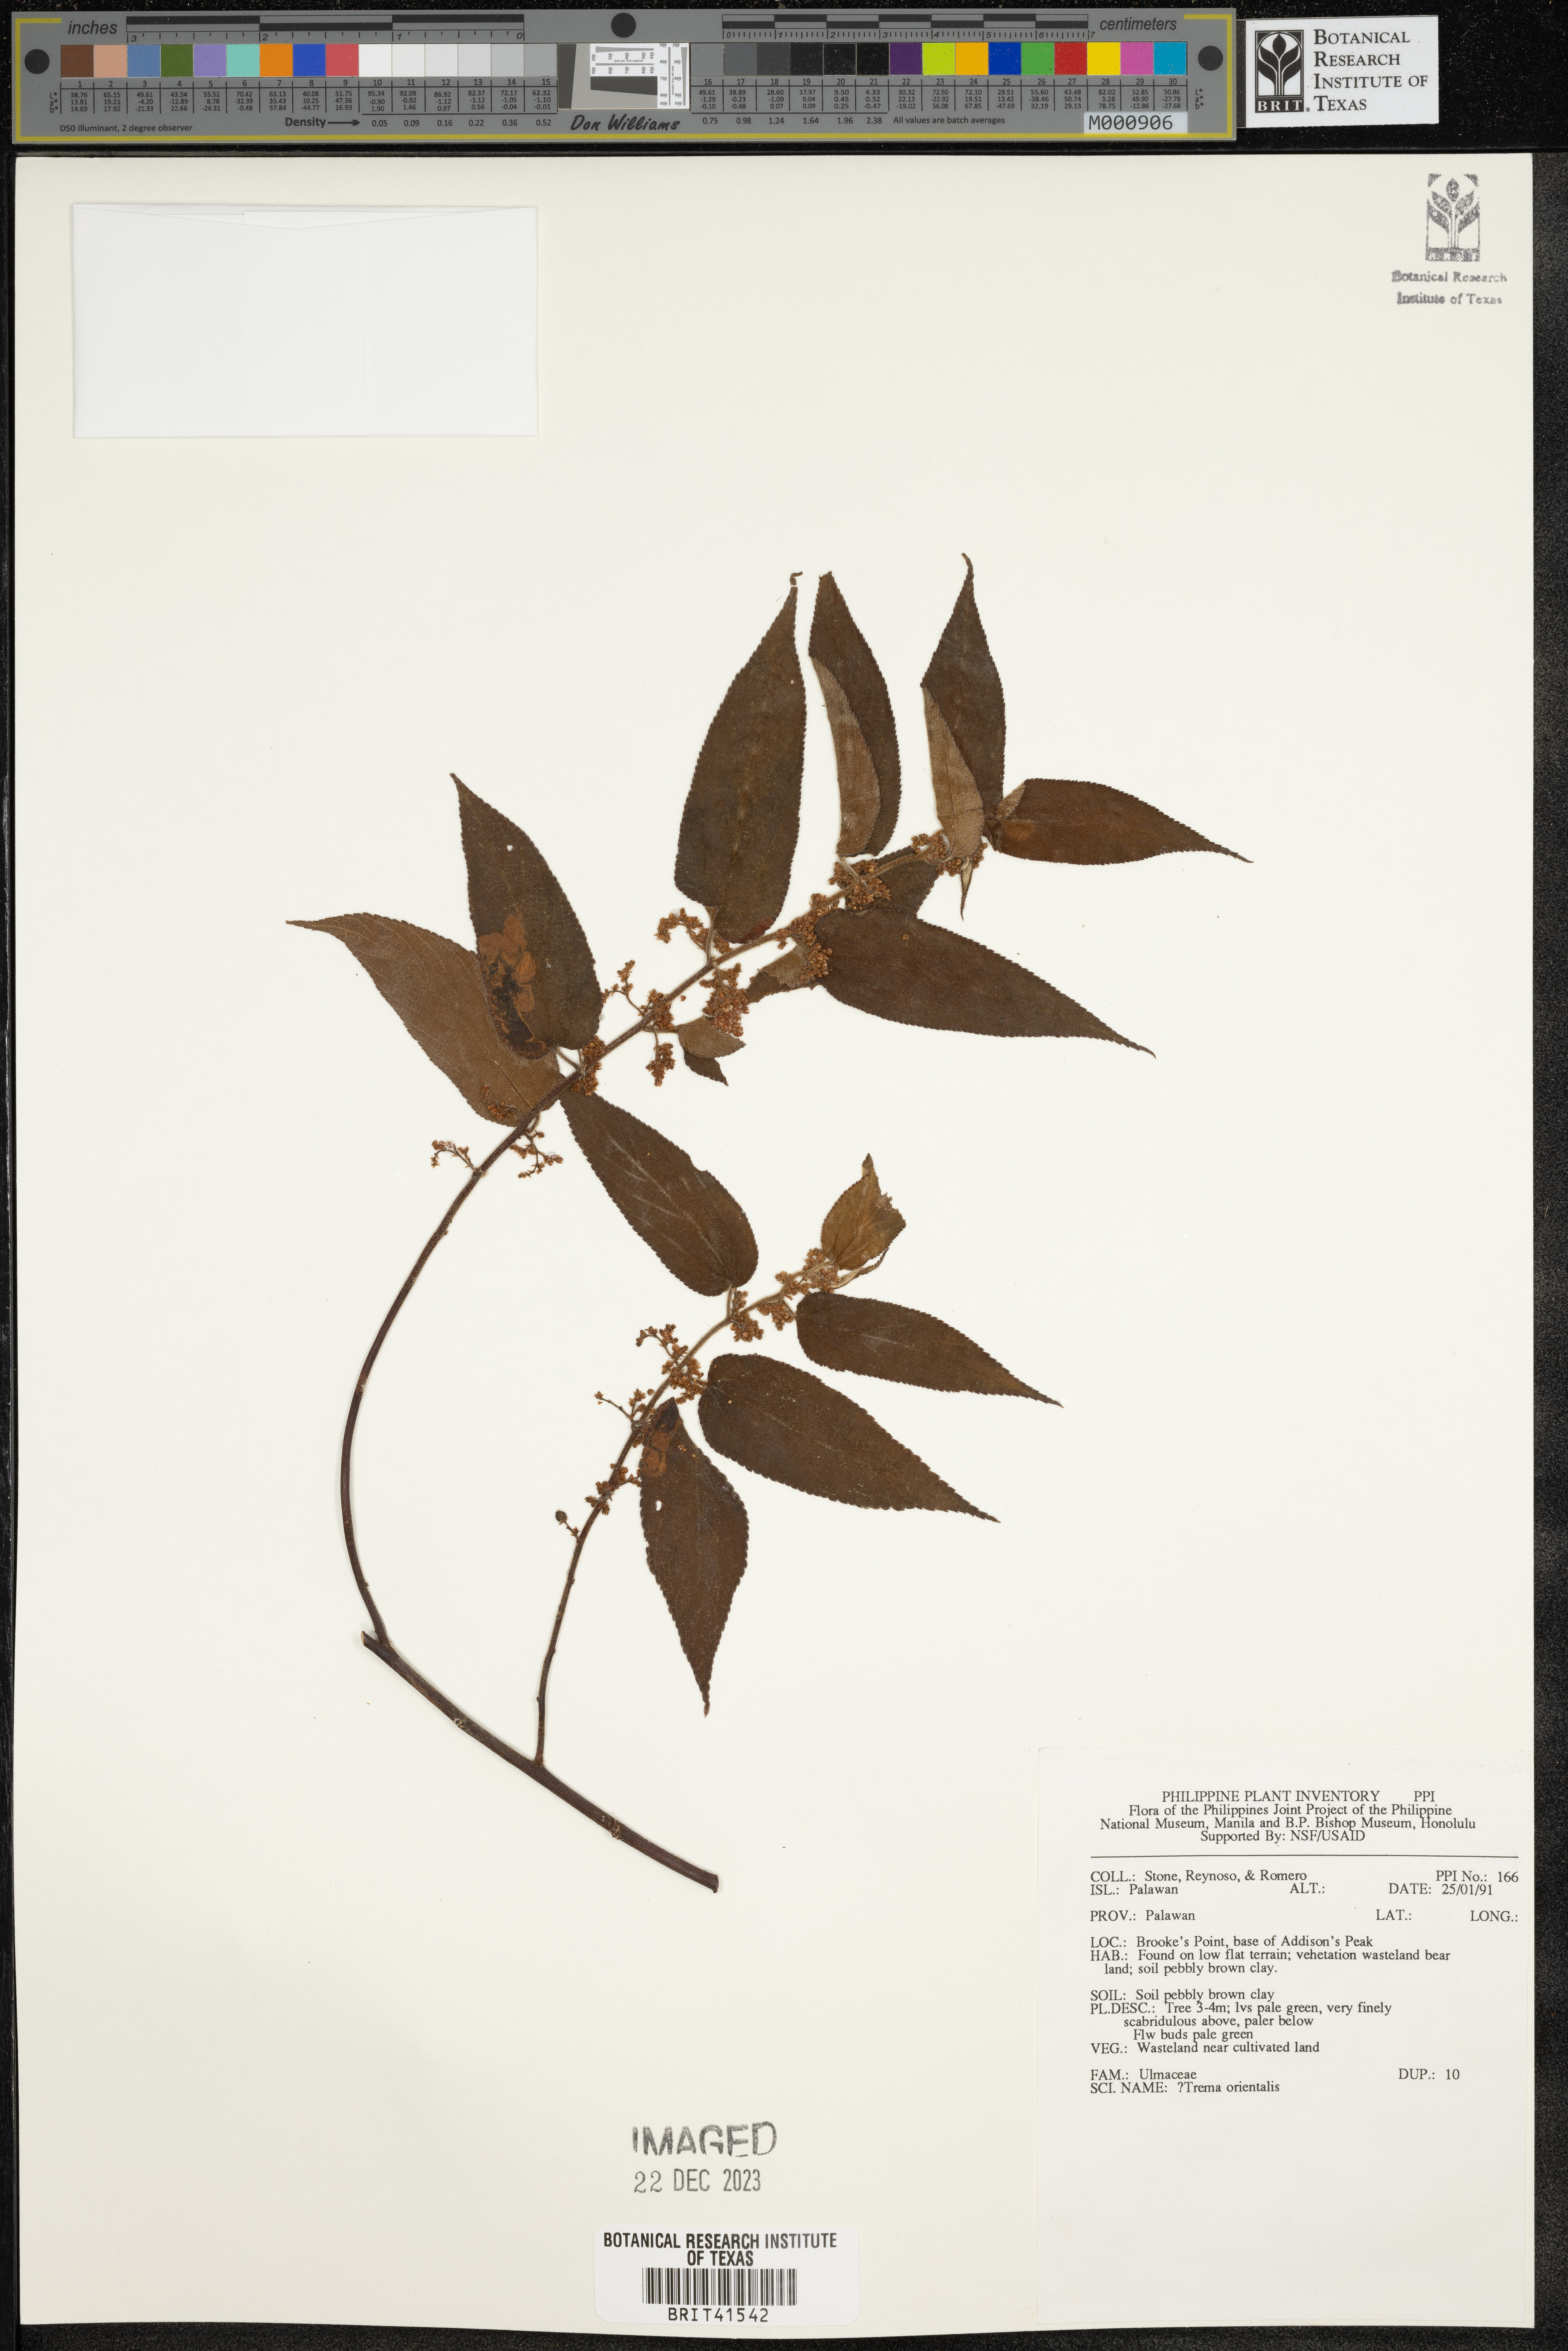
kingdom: Plantae
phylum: Tracheophyta
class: Magnoliopsida
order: Rosales
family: Cannabaceae
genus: Trema
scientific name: Trema orientale
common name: Indian charcoal tree
